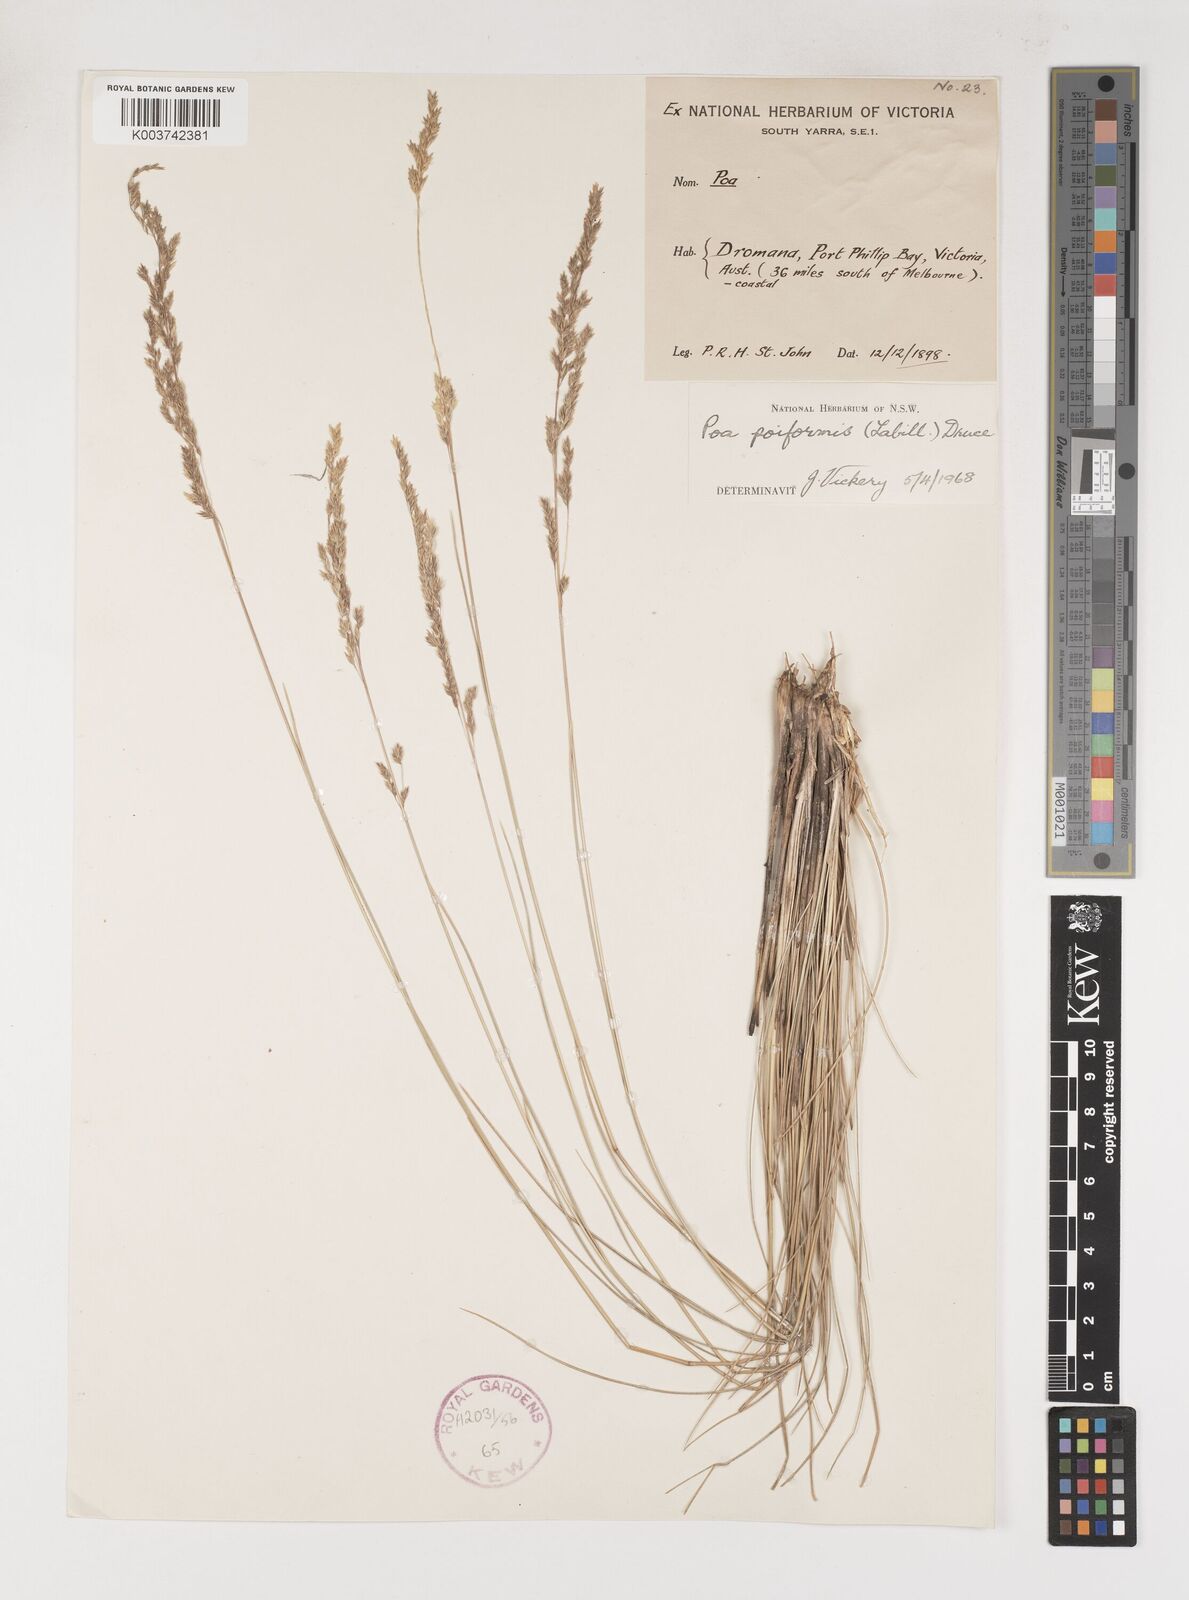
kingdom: Plantae
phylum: Tracheophyta
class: Liliopsida
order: Poales
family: Poaceae
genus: Poa
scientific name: Poa poiformis
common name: Tussock poa
